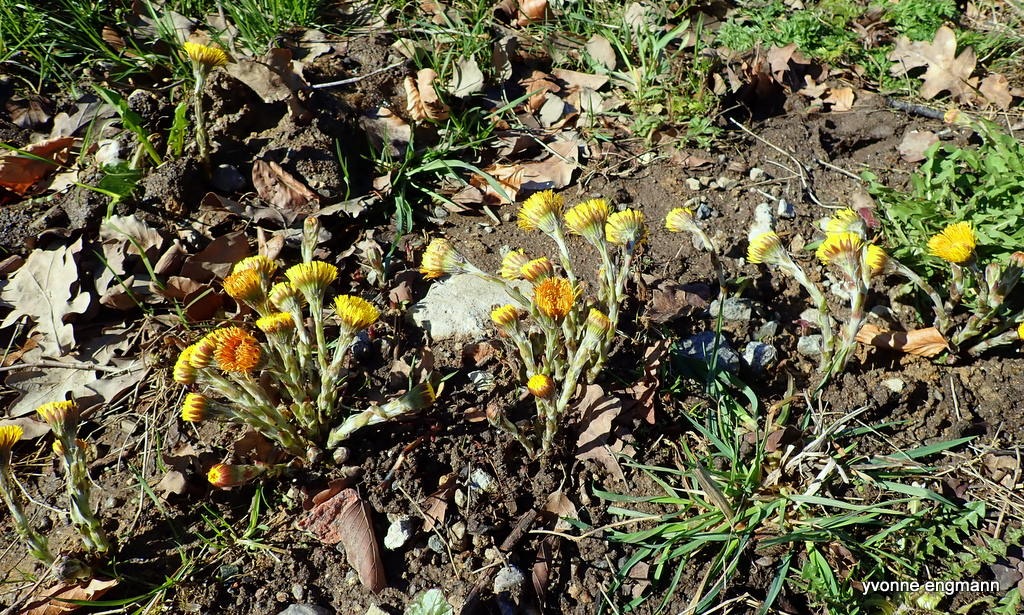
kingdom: Plantae
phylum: Tracheophyta
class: Magnoliopsida
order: Asterales
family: Asteraceae
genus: Tussilago
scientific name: Tussilago farfara
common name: Følfod
